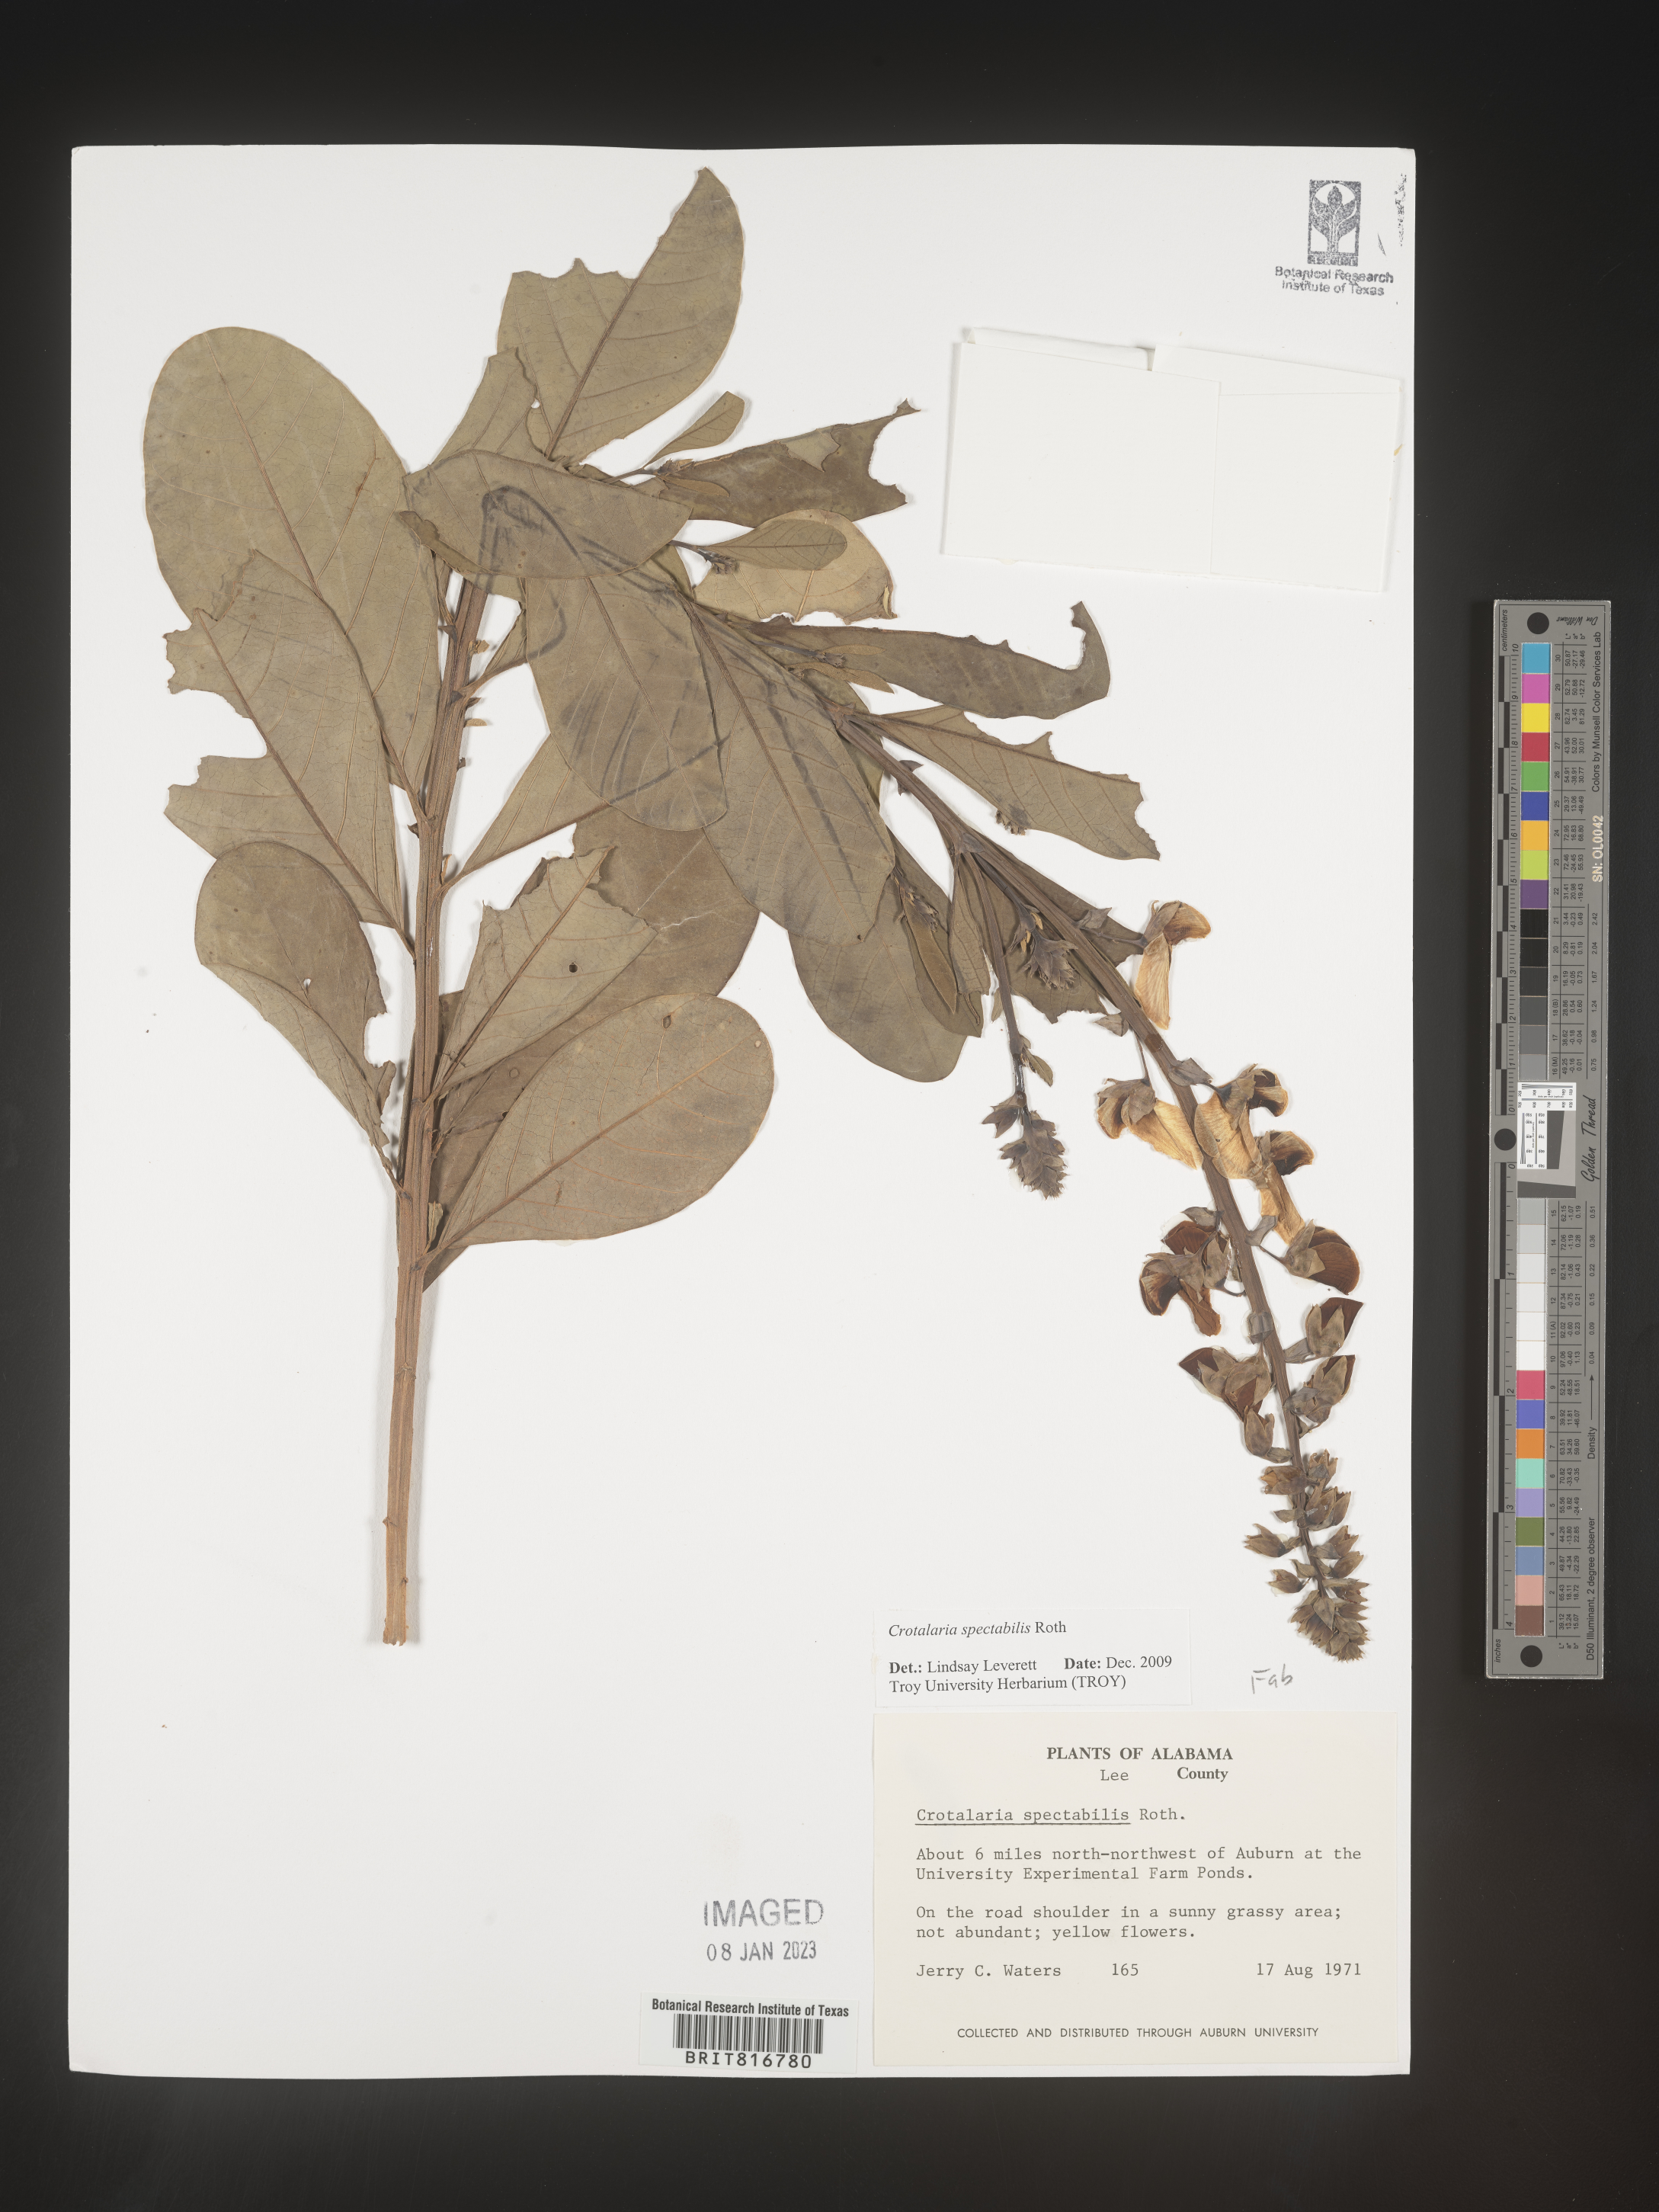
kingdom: Plantae
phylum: Tracheophyta
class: Magnoliopsida
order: Fabales
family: Fabaceae
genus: Crotalaria
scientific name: Crotalaria spectabilis
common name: Showy rattlebox
